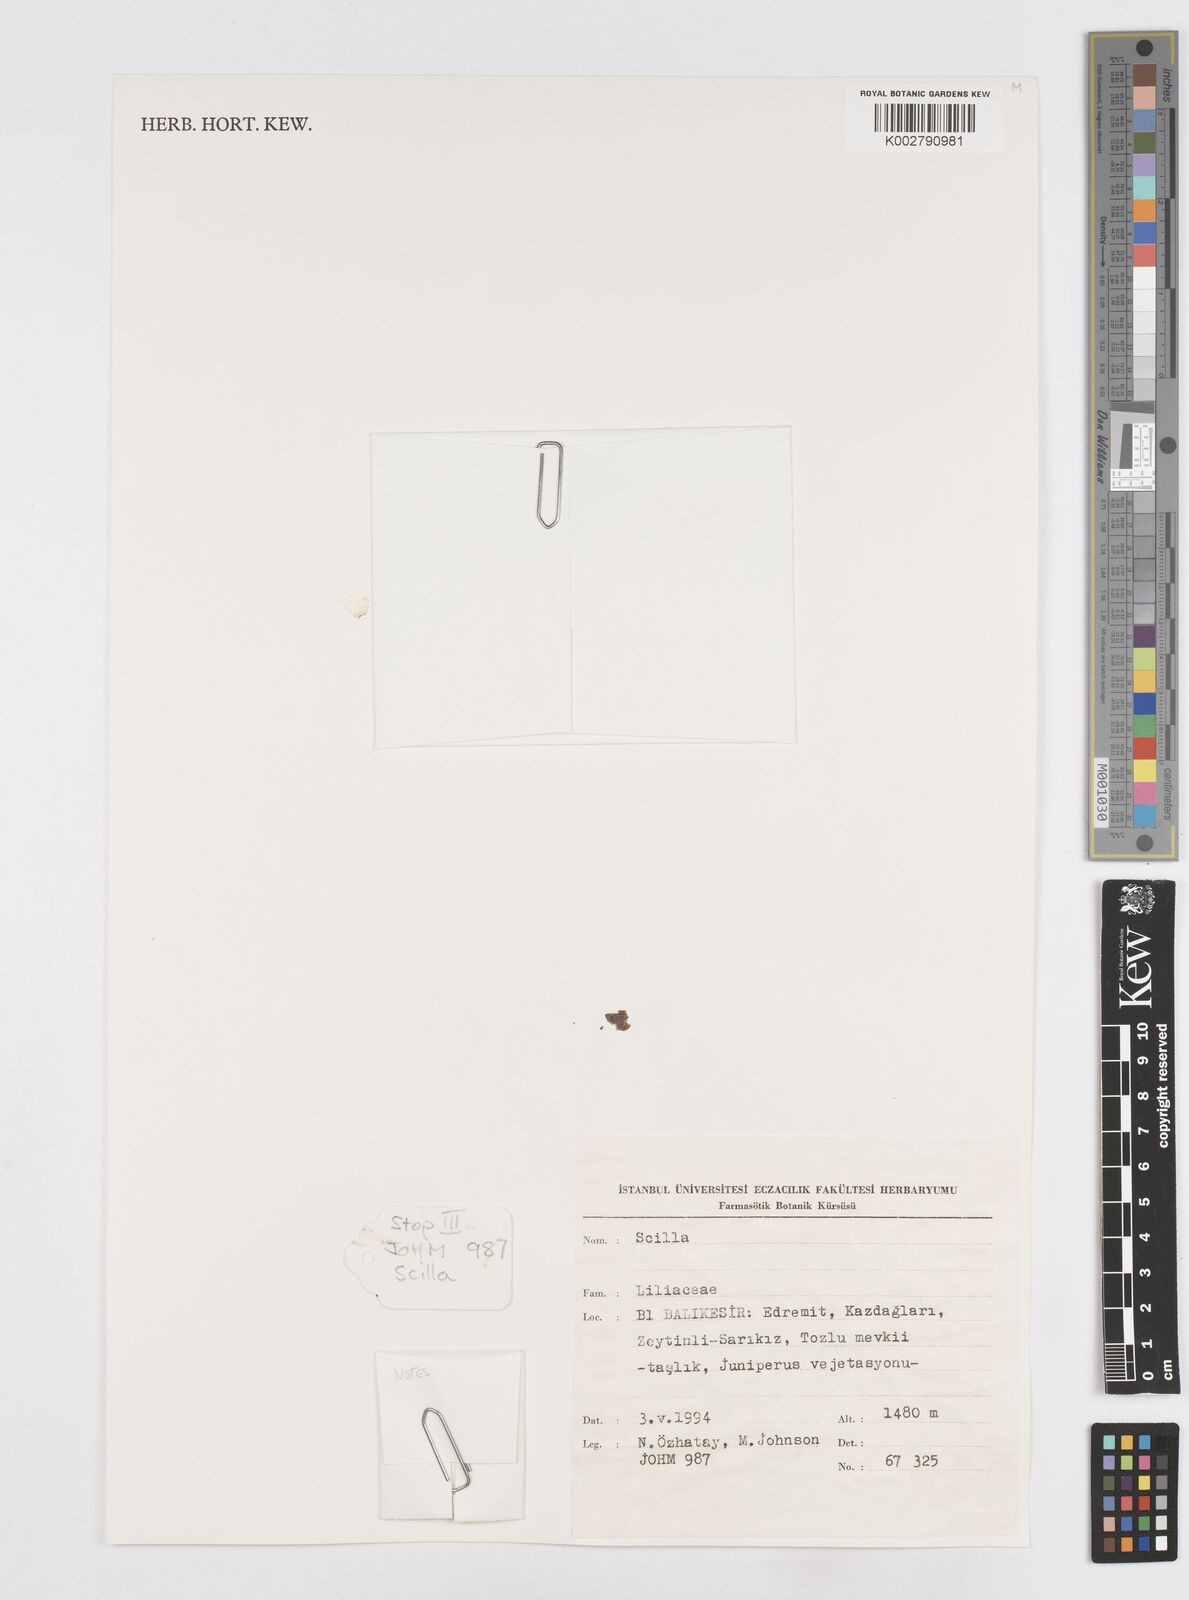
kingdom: Plantae
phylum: Tracheophyta
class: Liliopsida
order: Asparagales
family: Asparagaceae
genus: Scilla
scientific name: Scilla
